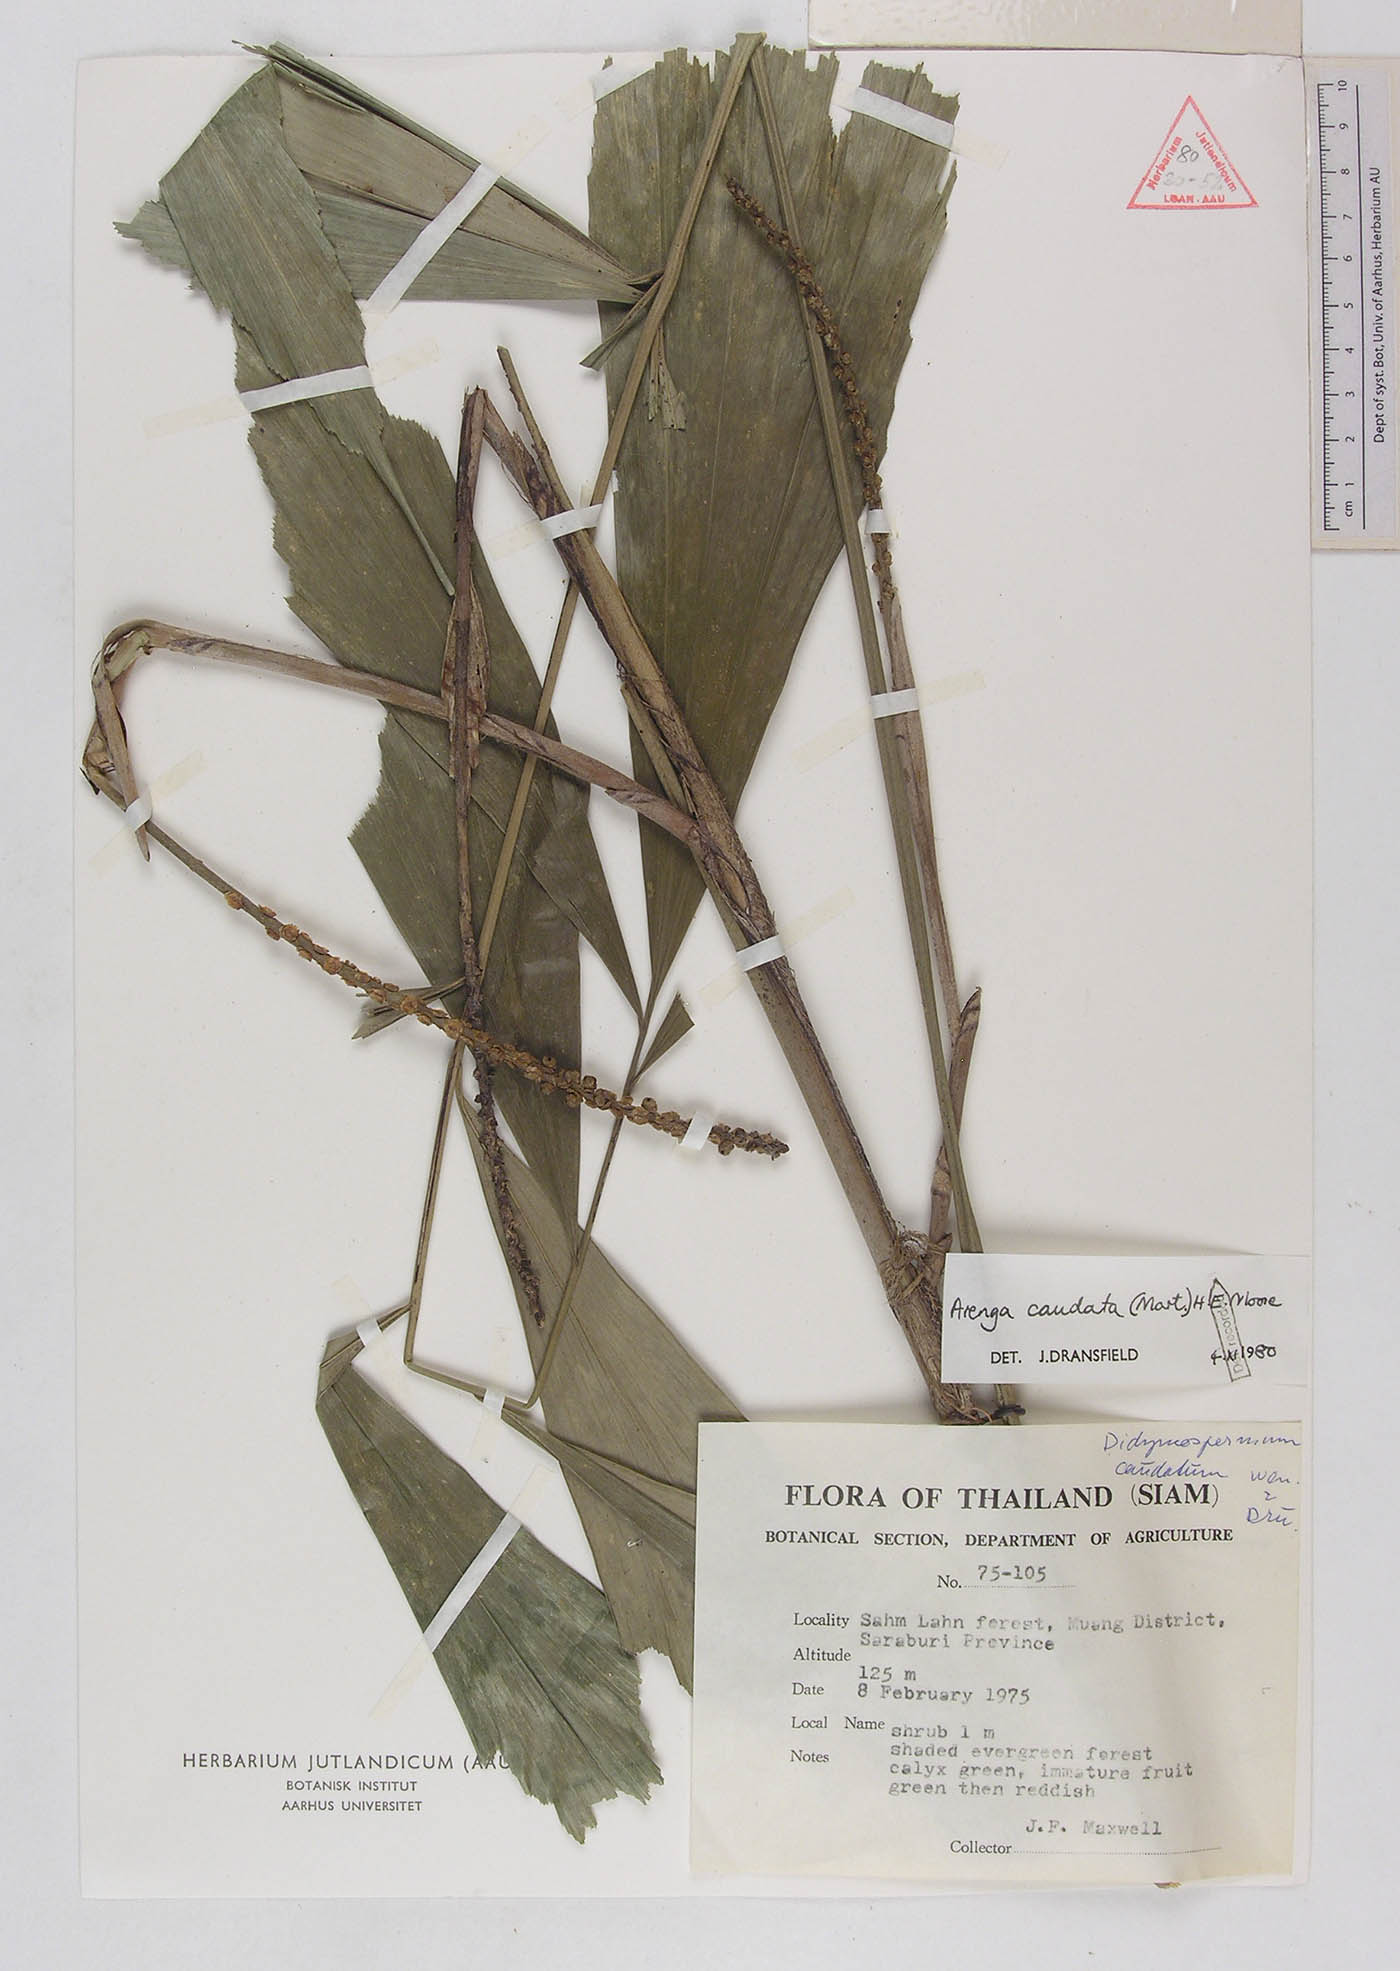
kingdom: Plantae
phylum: Tracheophyta
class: Liliopsida
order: Arecales
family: Arecaceae
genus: Arenga
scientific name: Arenga caudata
